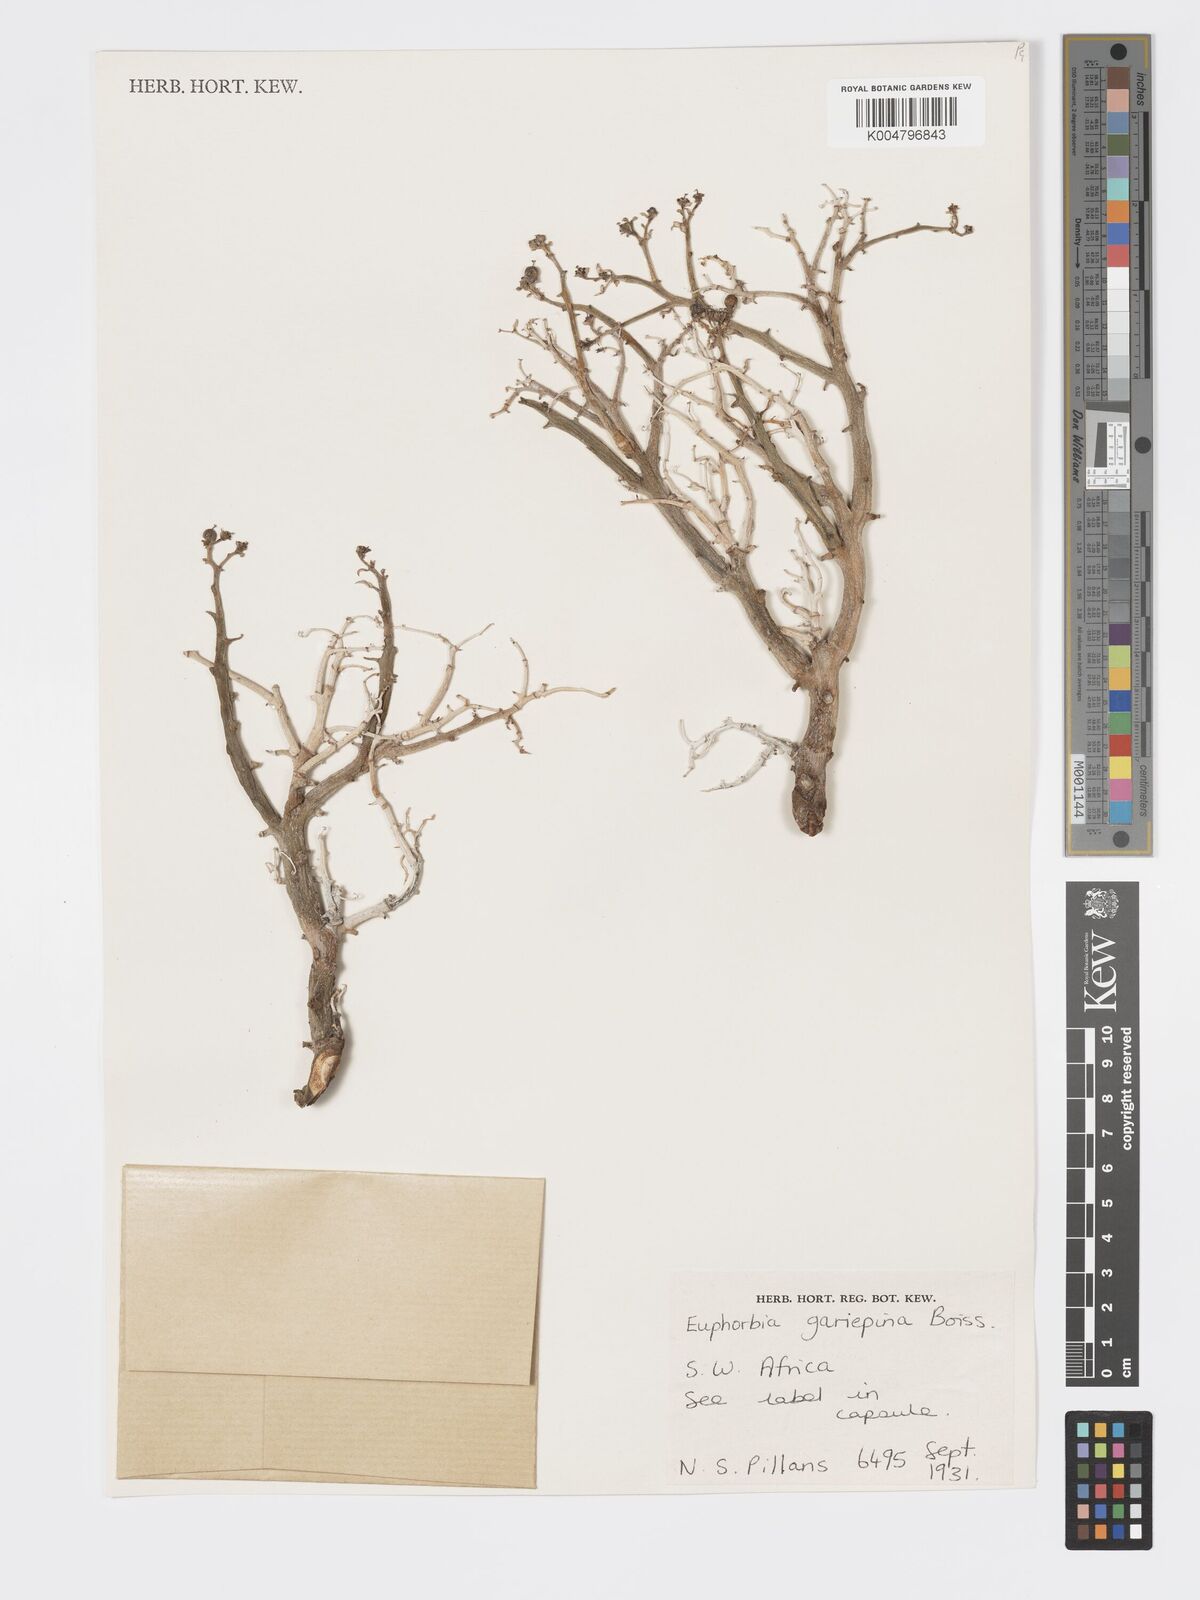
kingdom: Plantae
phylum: Tracheophyta
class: Magnoliopsida
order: Malpighiales
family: Euphorbiaceae
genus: Euphorbia
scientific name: Euphorbia gariepina
